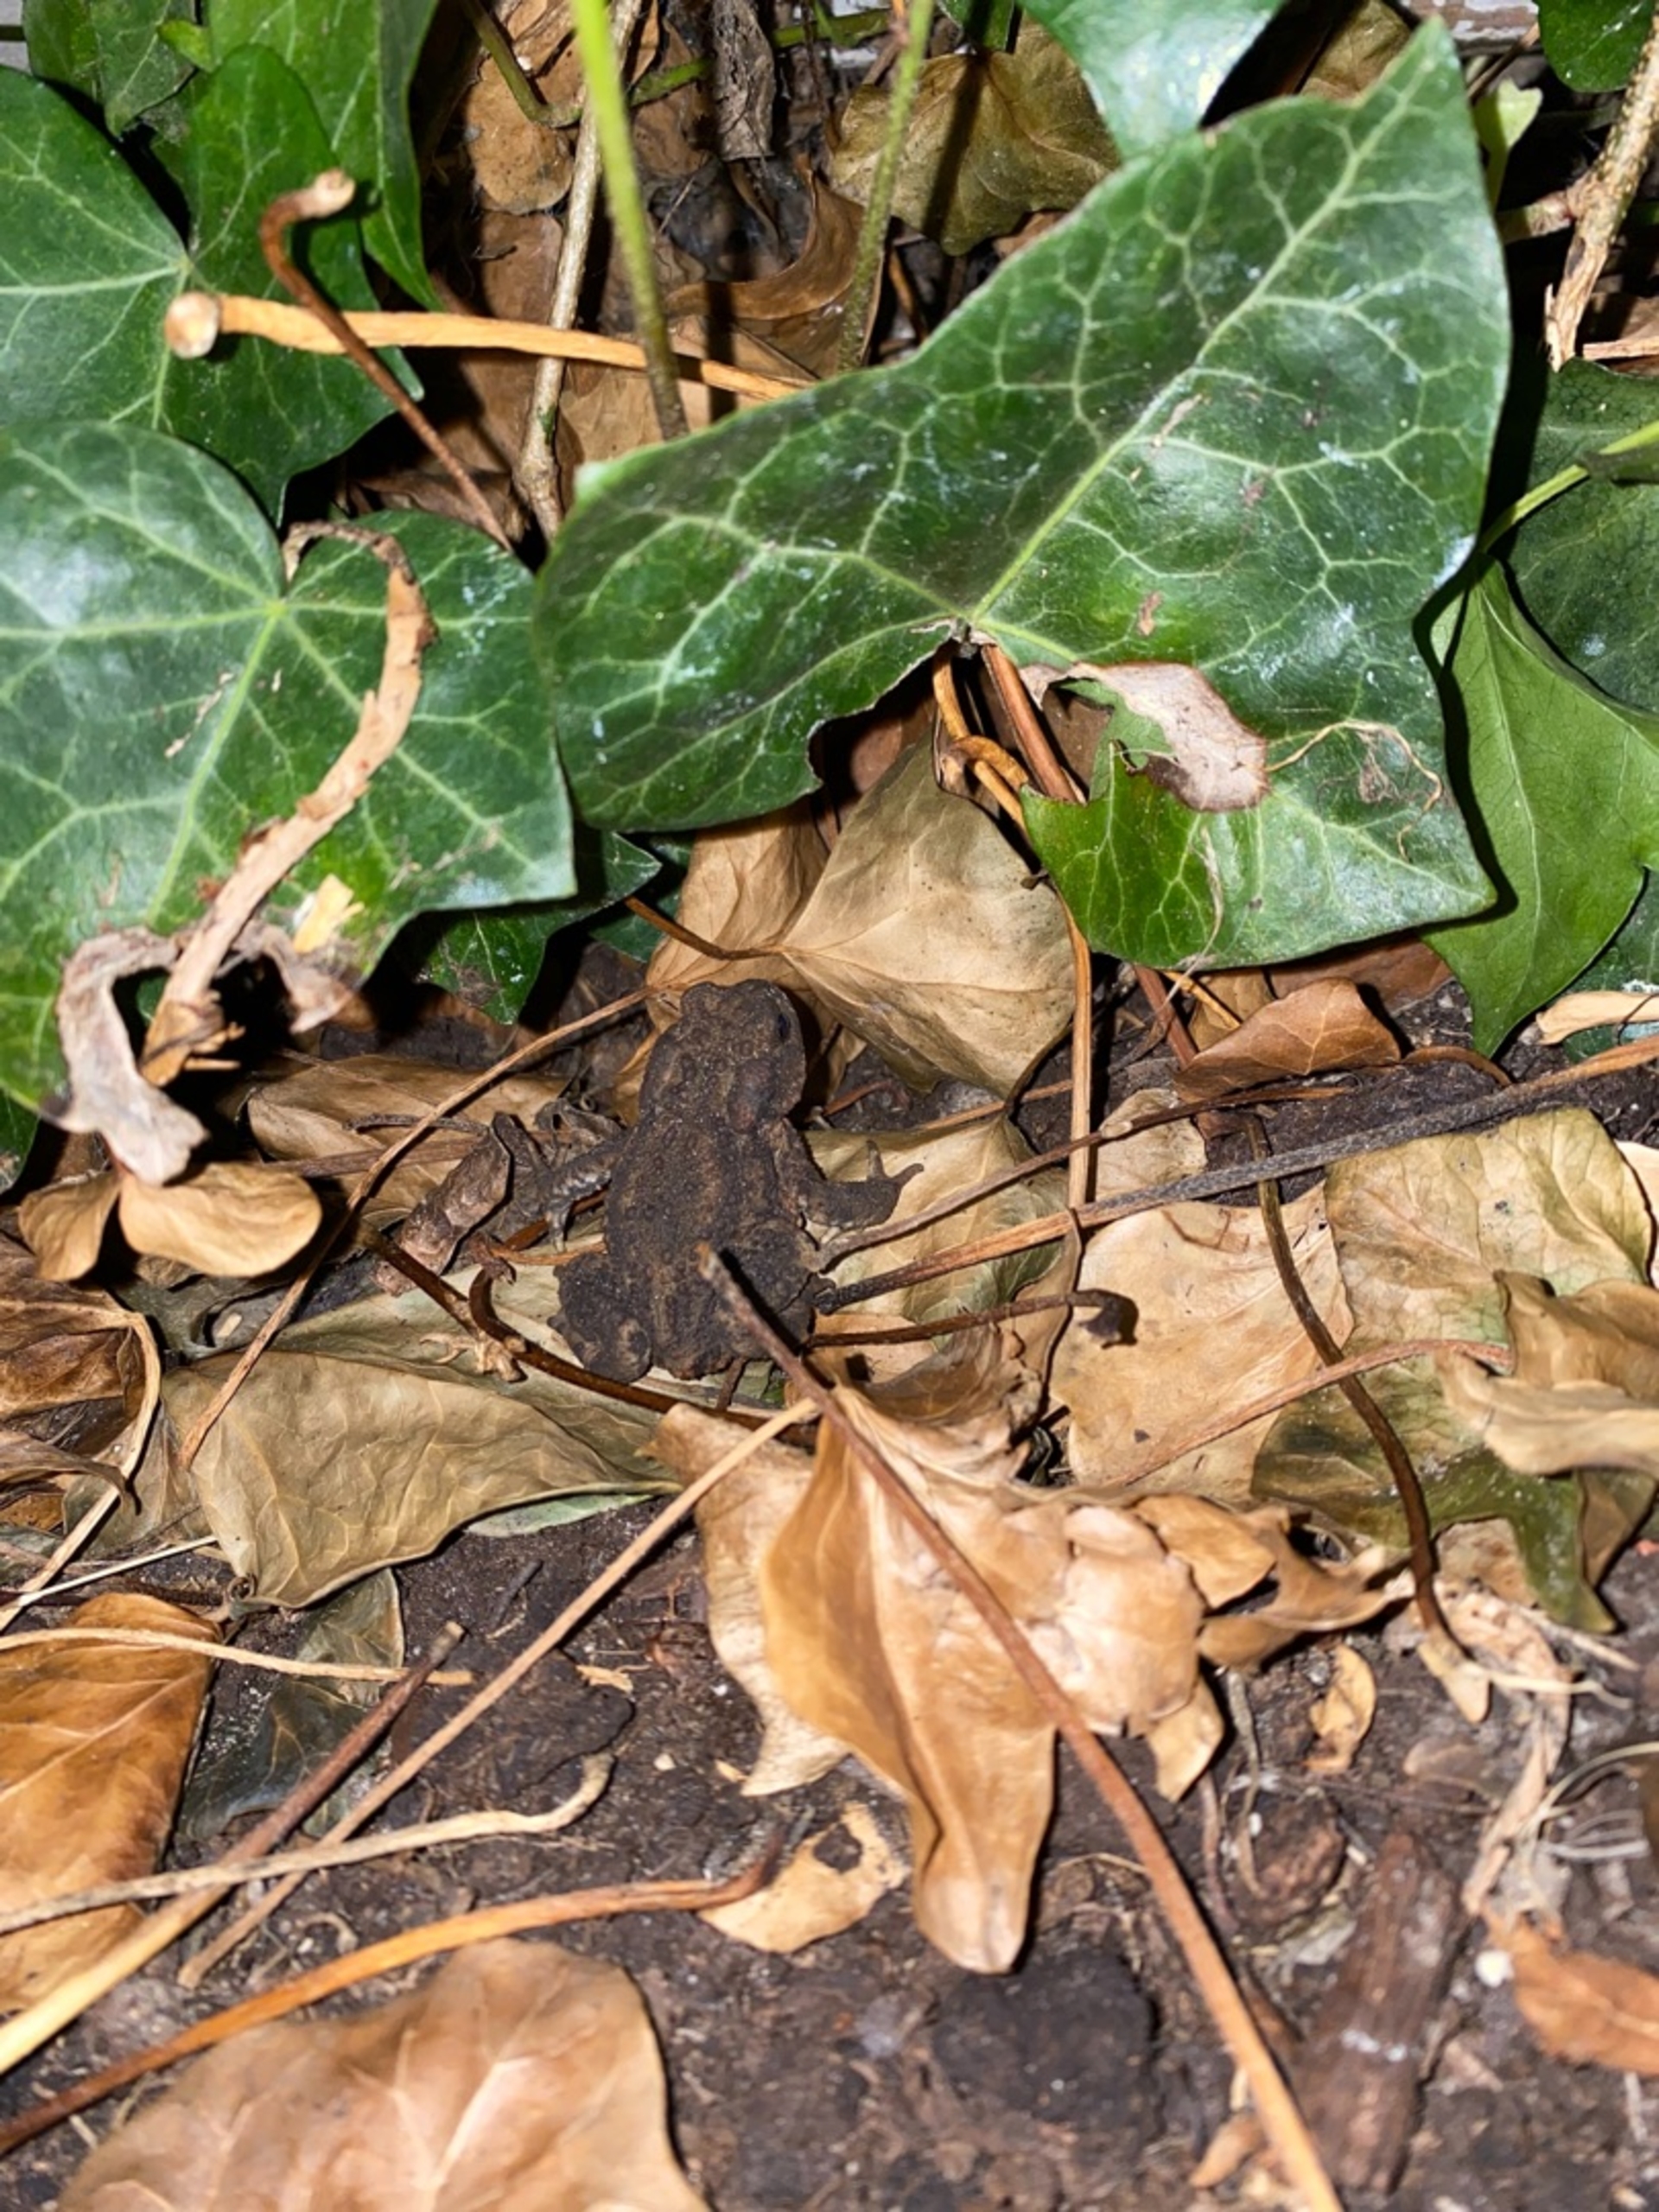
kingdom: Animalia
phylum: Chordata
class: Amphibia
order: Anura
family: Bufonidae
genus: Bufo
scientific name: Bufo bufo
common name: Skrubtudse
